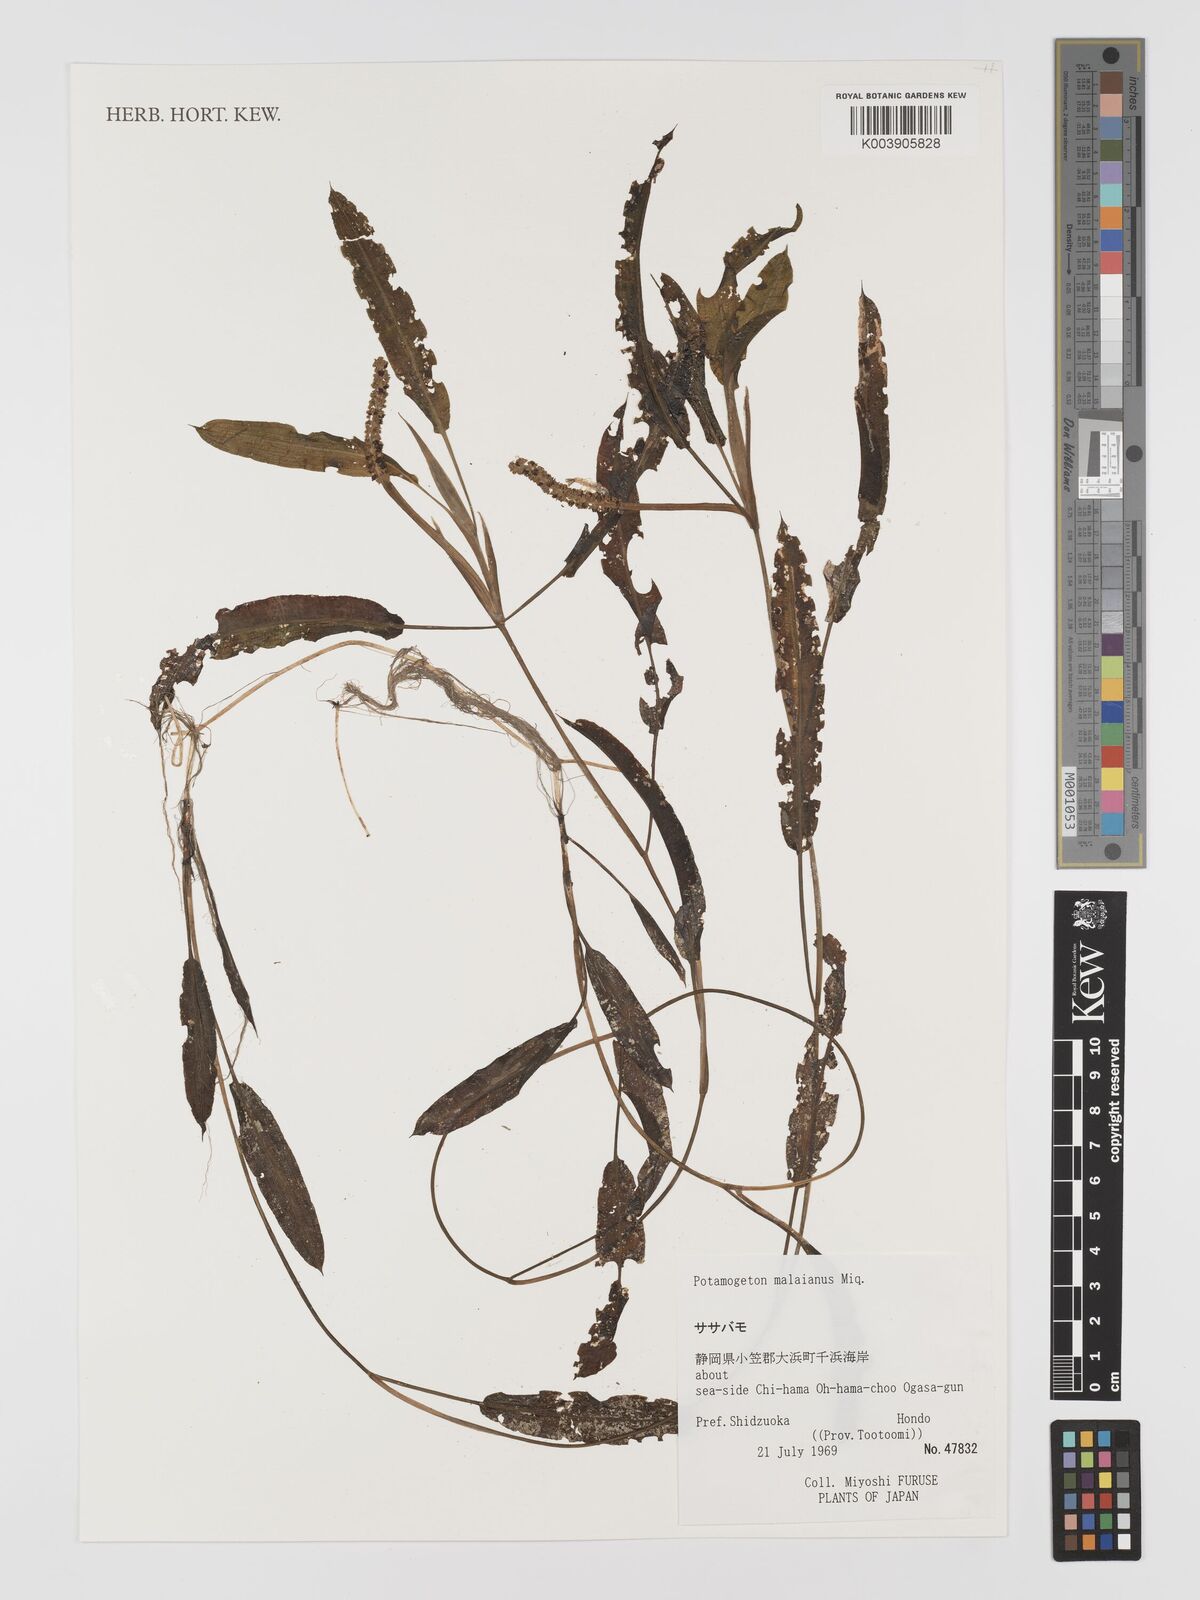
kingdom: Plantae
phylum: Tracheophyta
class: Liliopsida
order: Alismatales
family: Potamogetonaceae
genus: Potamogeton
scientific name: Potamogeton nodosus
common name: Loddon pondweed
